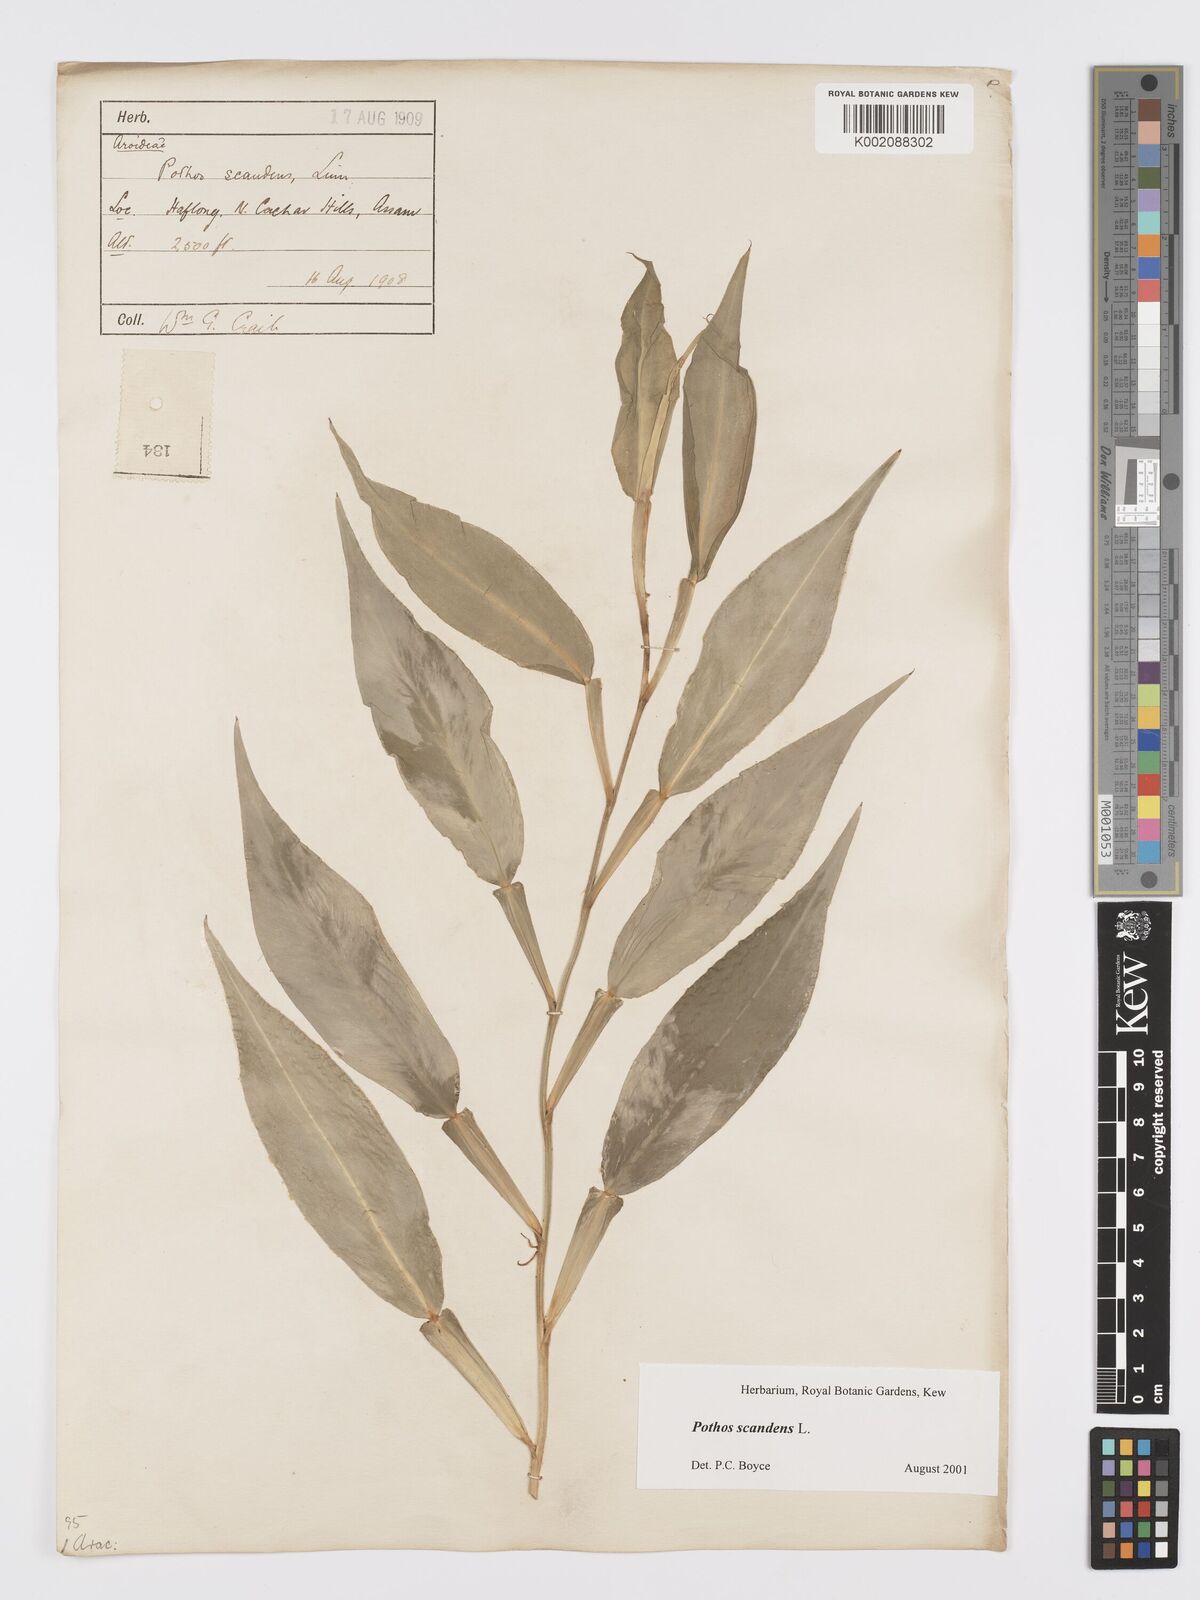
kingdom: Plantae
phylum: Tracheophyta
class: Liliopsida
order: Alismatales
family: Araceae
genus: Pothos
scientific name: Pothos scandens
